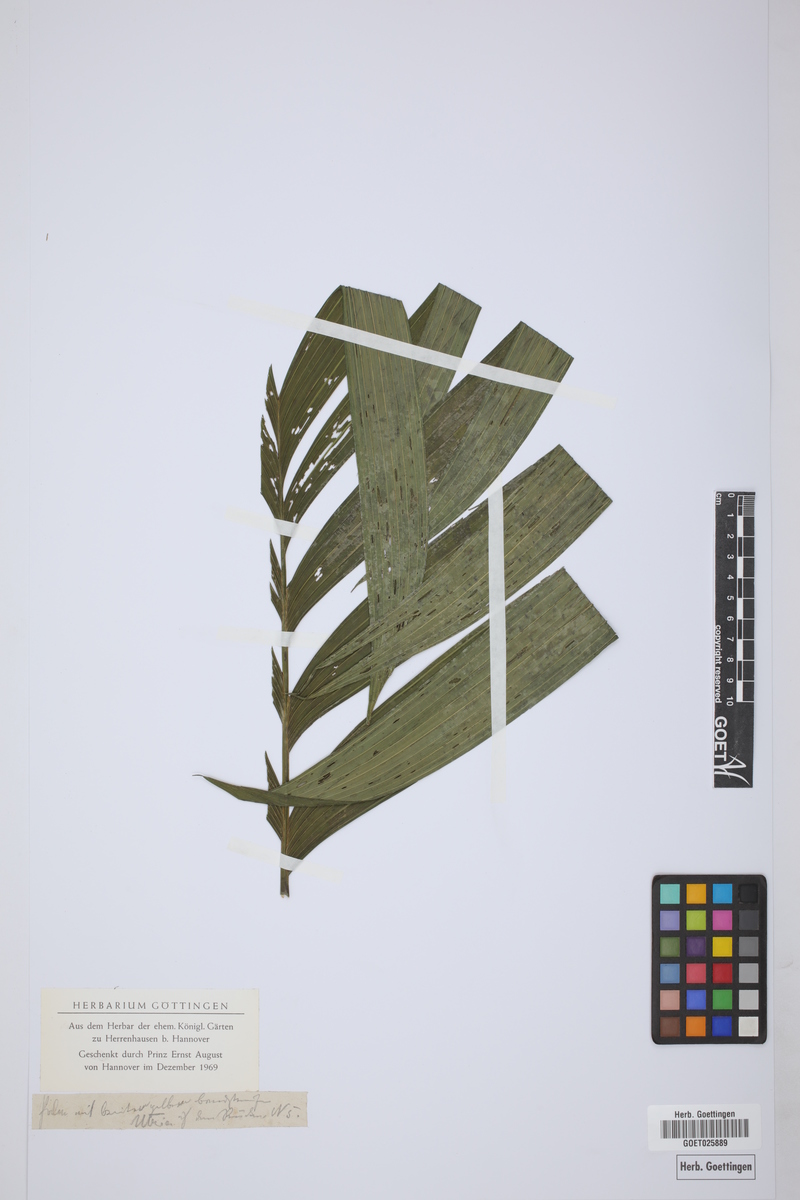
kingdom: Plantae
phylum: Tracheophyta
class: Liliopsida
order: Arecales
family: Arecaceae
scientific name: Arecaceae
